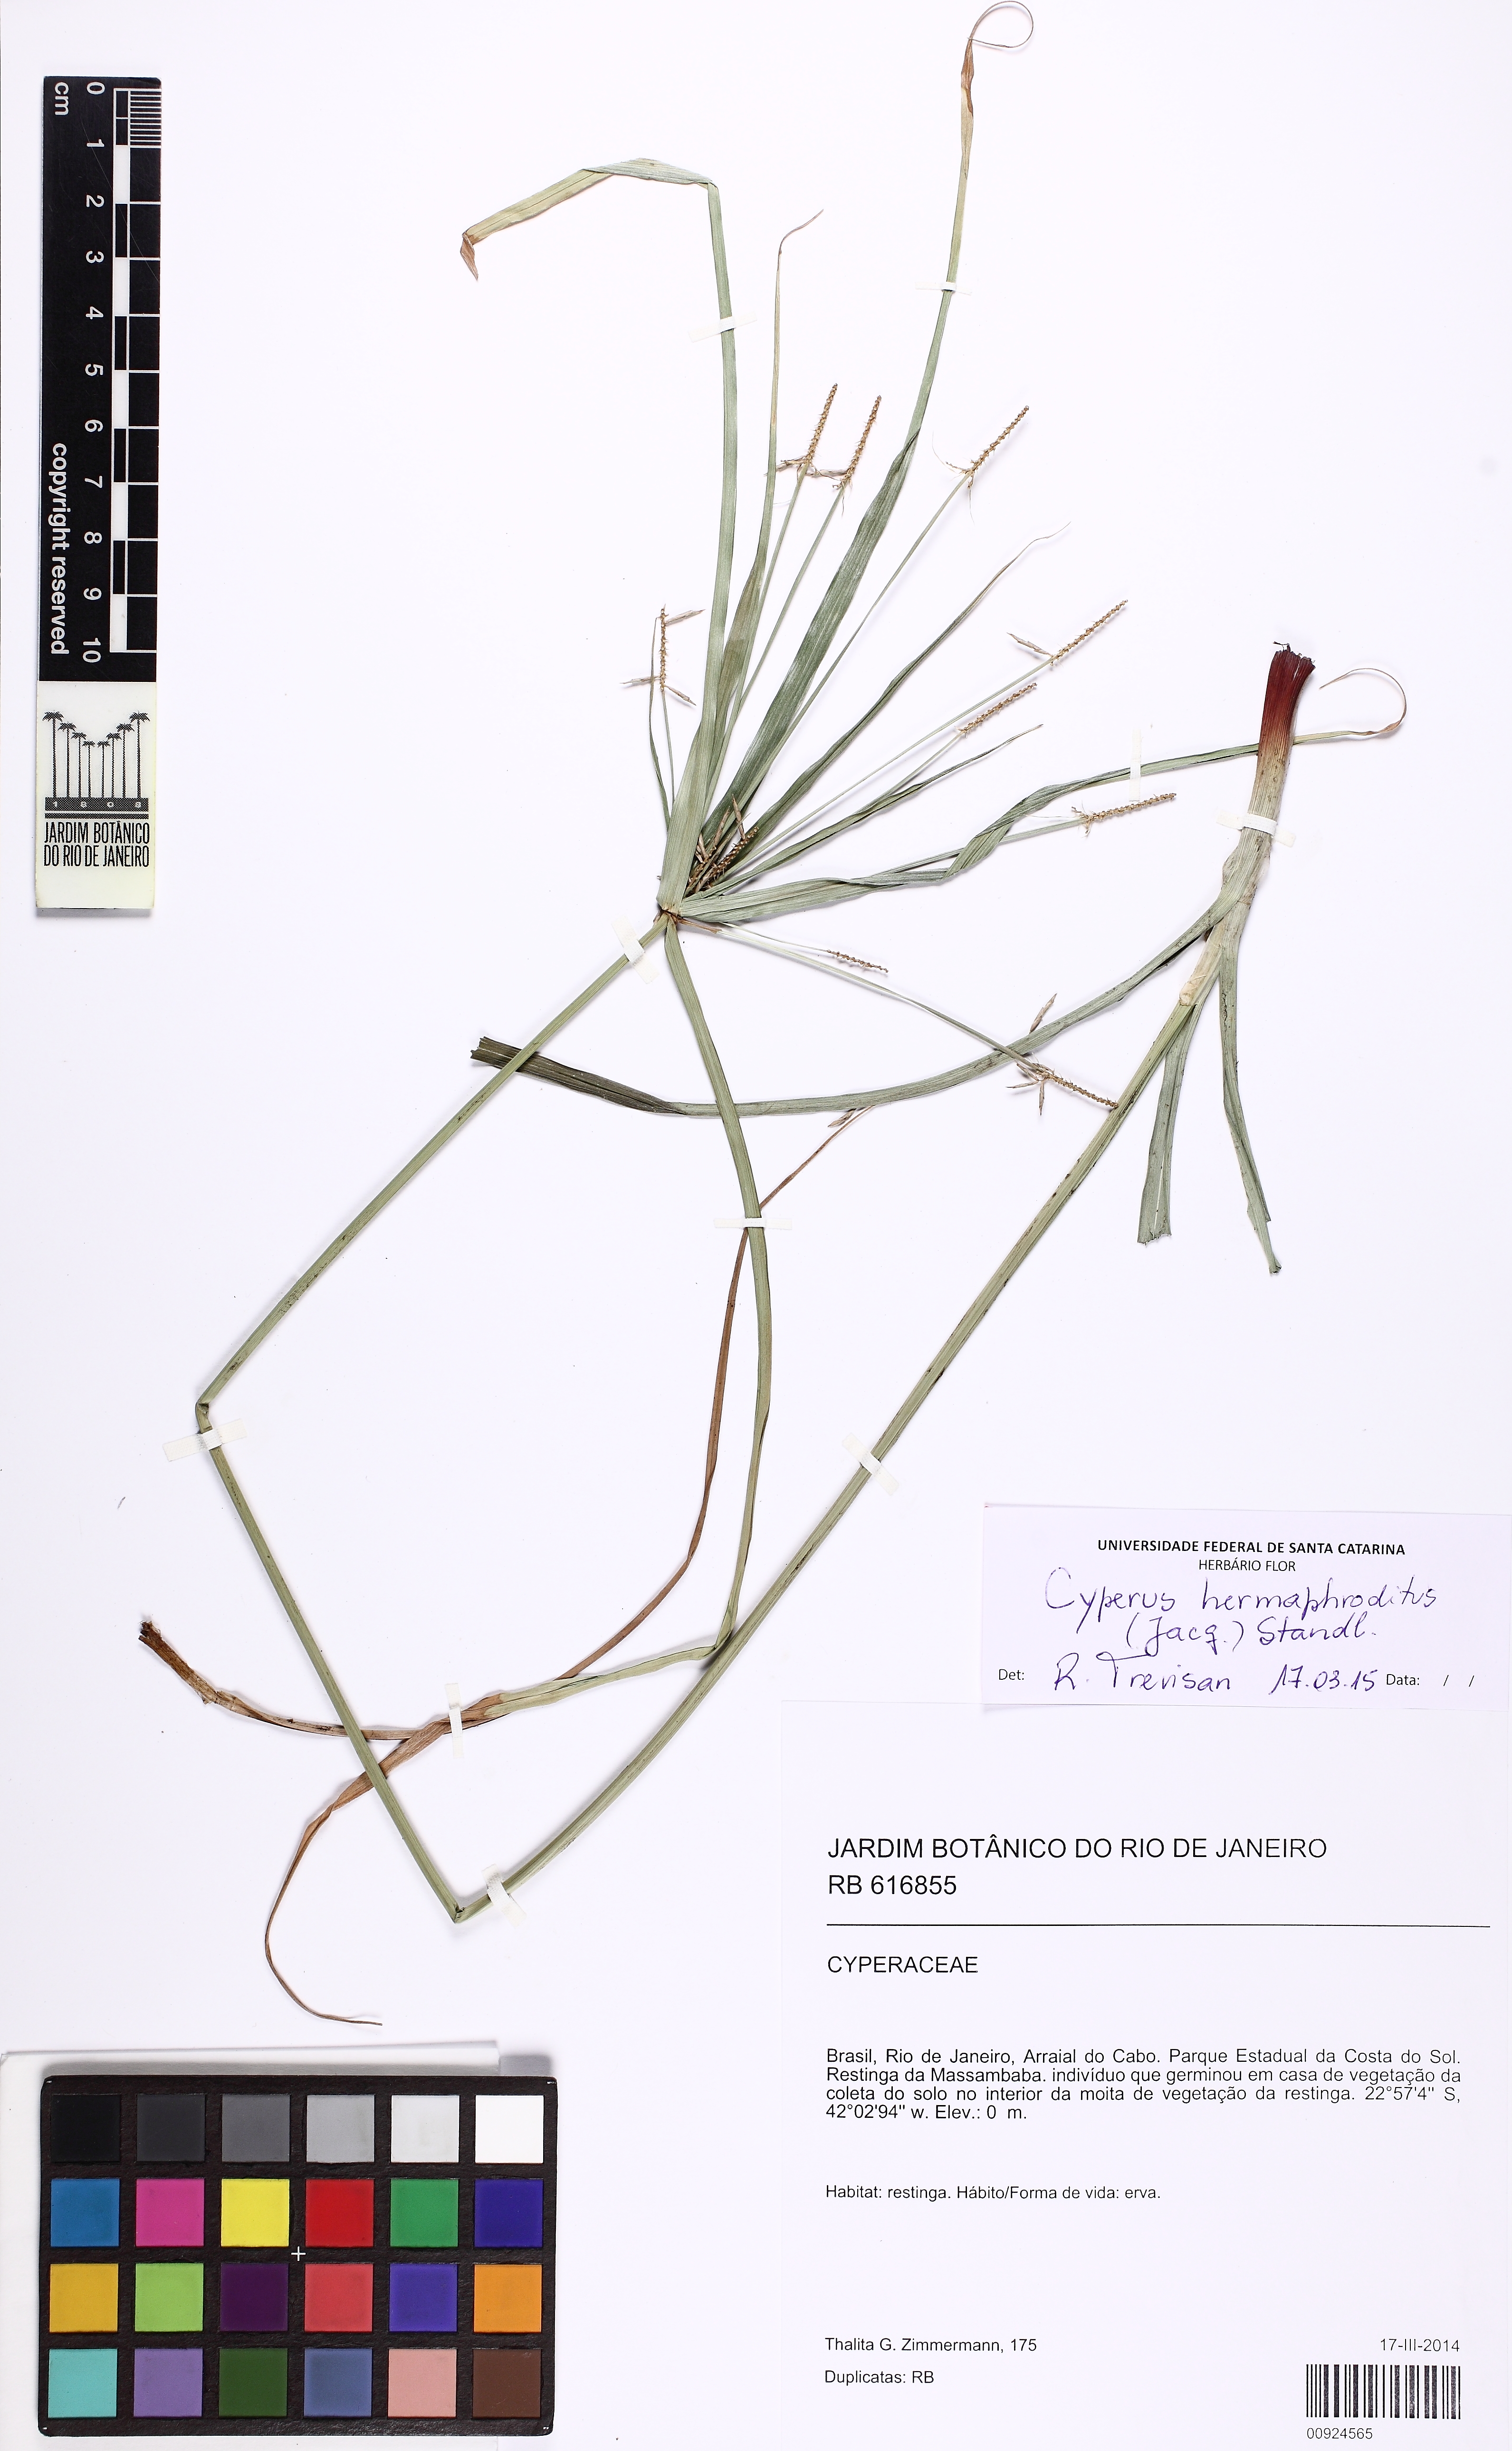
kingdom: Plantae
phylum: Tracheophyta
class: Liliopsida
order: Poales
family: Cyperaceae
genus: Cyperus
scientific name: Cyperus hermaphroditus
